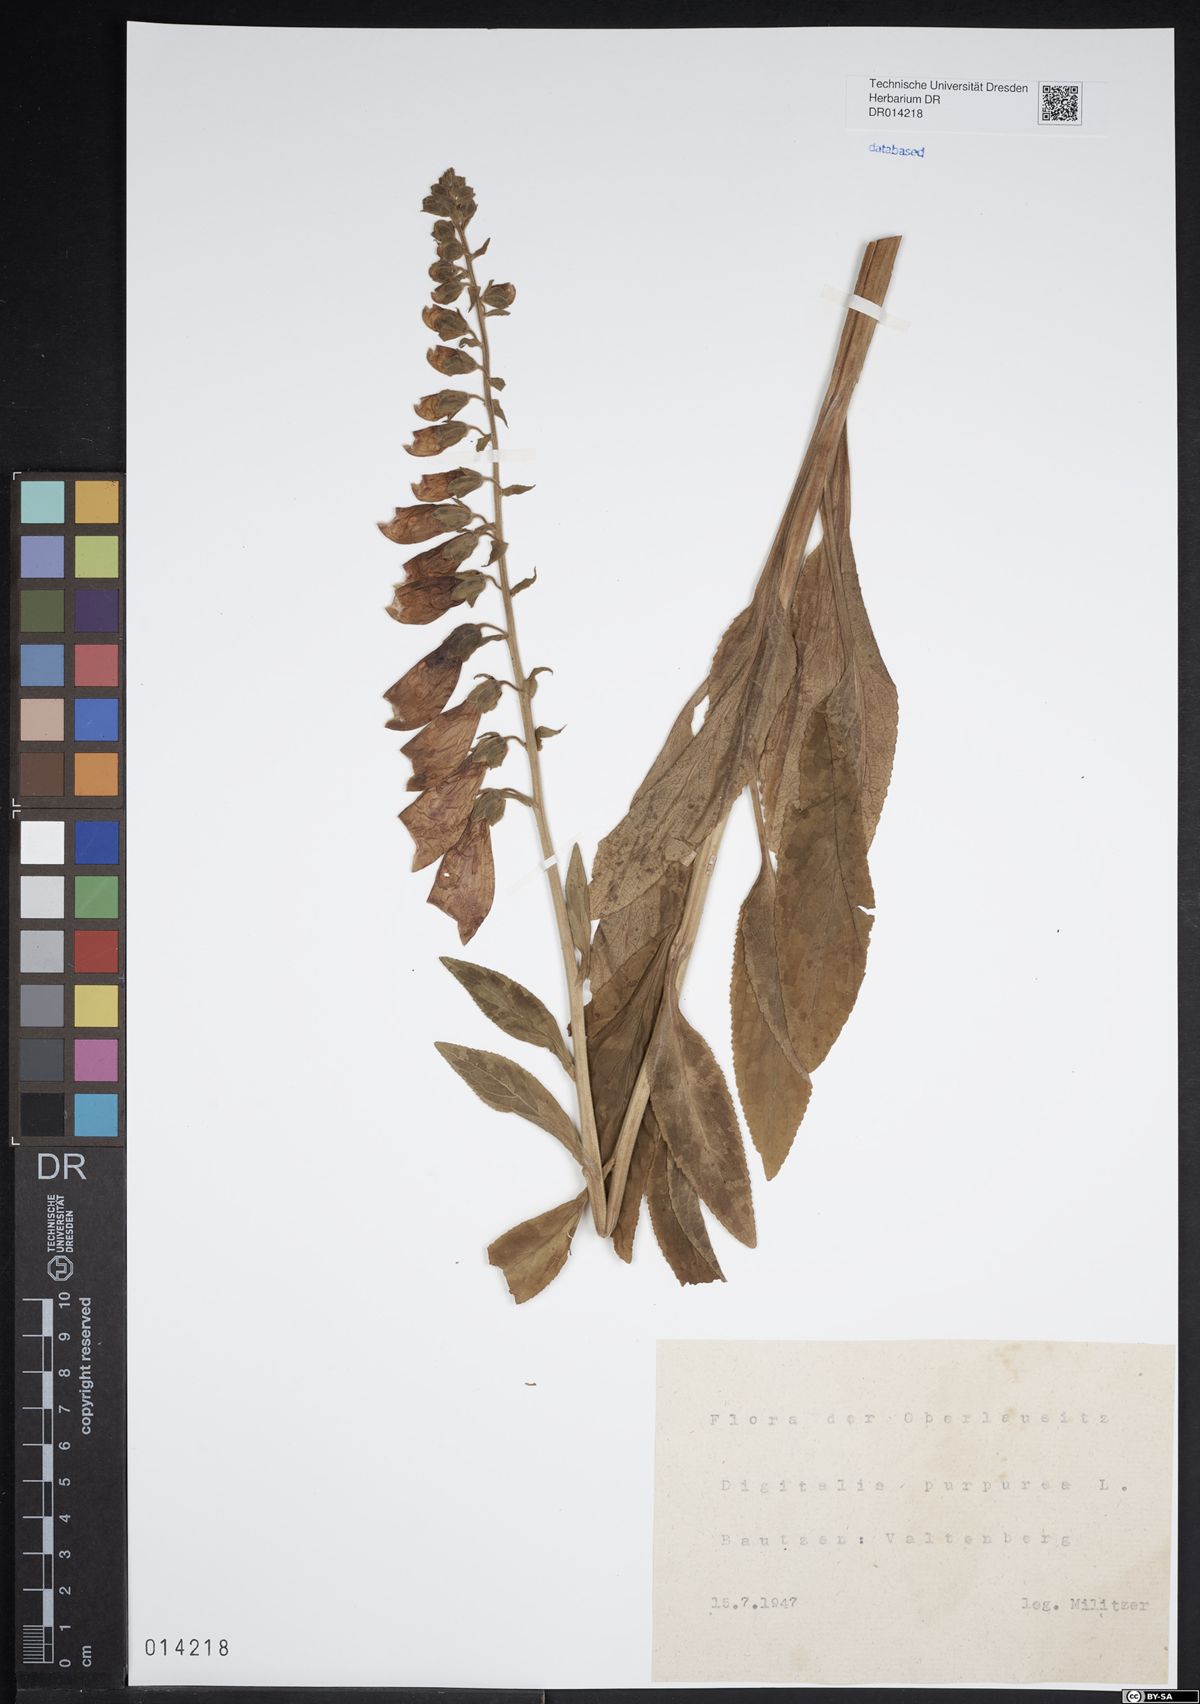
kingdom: Plantae
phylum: Tracheophyta
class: Magnoliopsida
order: Lamiales
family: Plantaginaceae
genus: Digitalis
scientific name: Digitalis purpurea
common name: Foxglove
